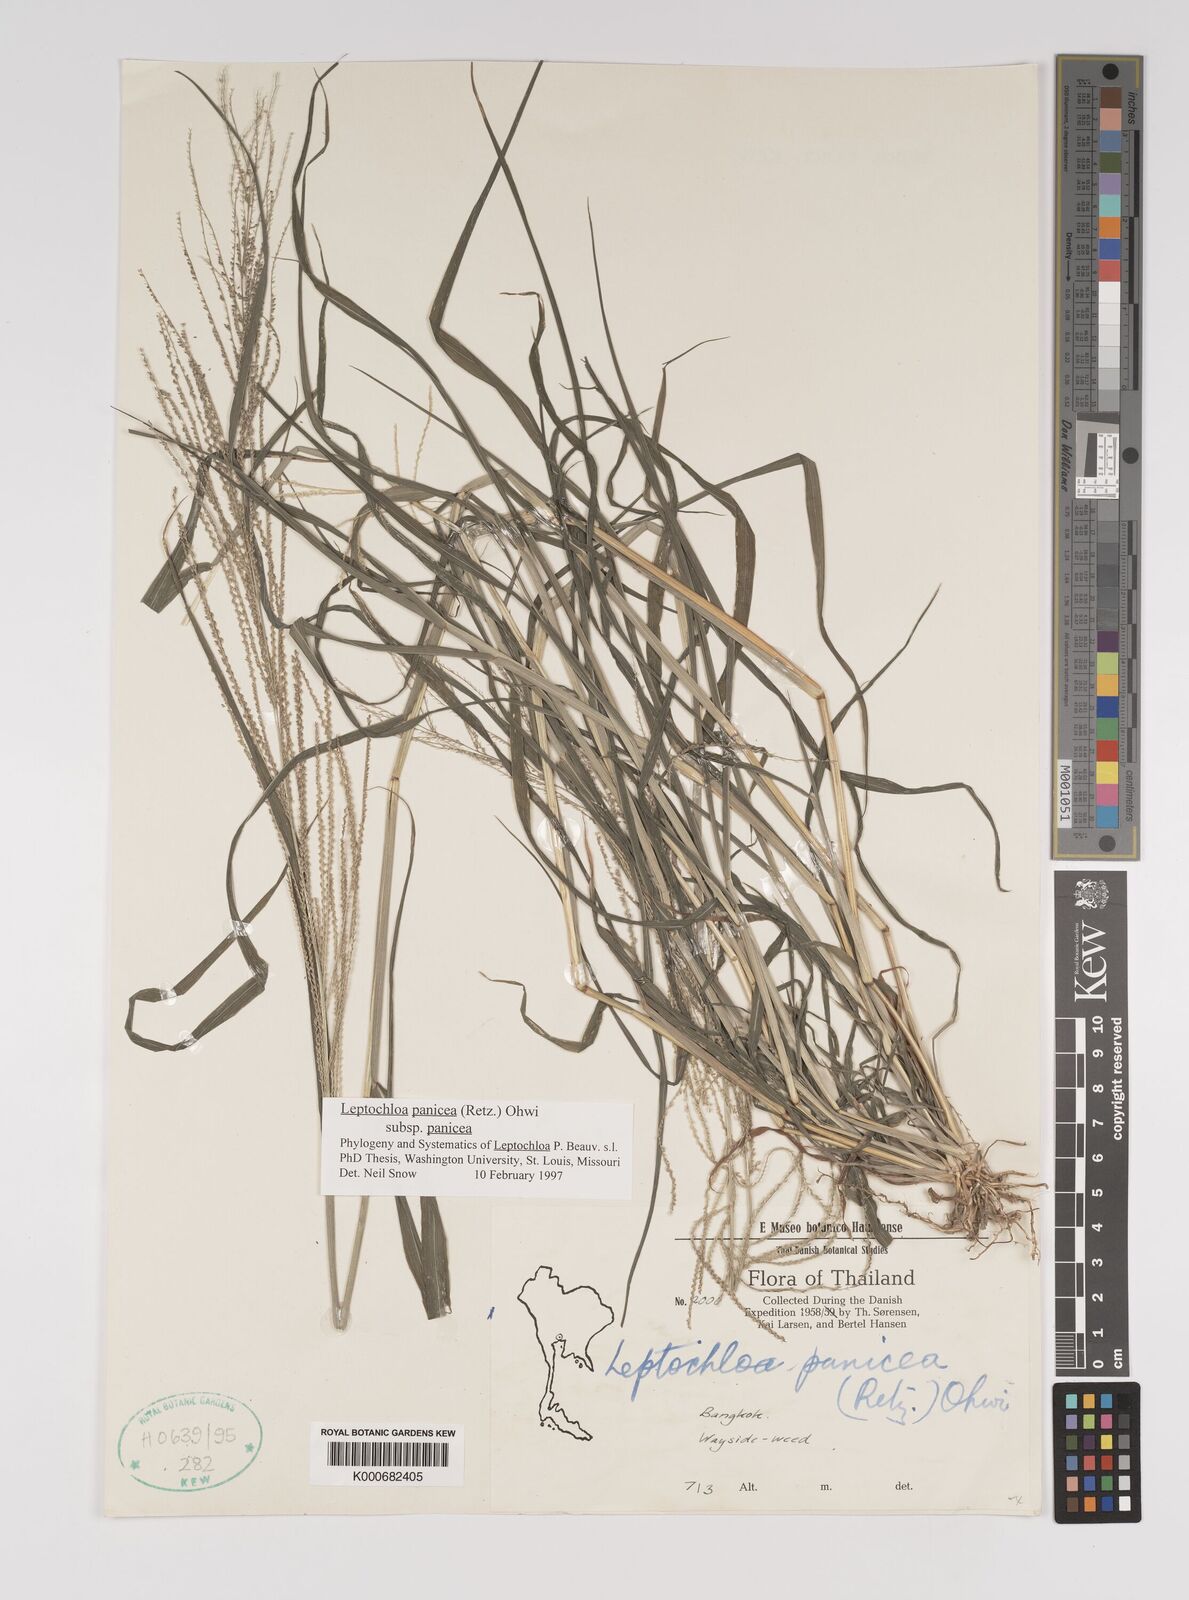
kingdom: Plantae
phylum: Tracheophyta
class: Liliopsida
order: Poales
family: Poaceae
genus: Leptochloa
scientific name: Leptochloa panicea
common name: Mucronate sprangletop
